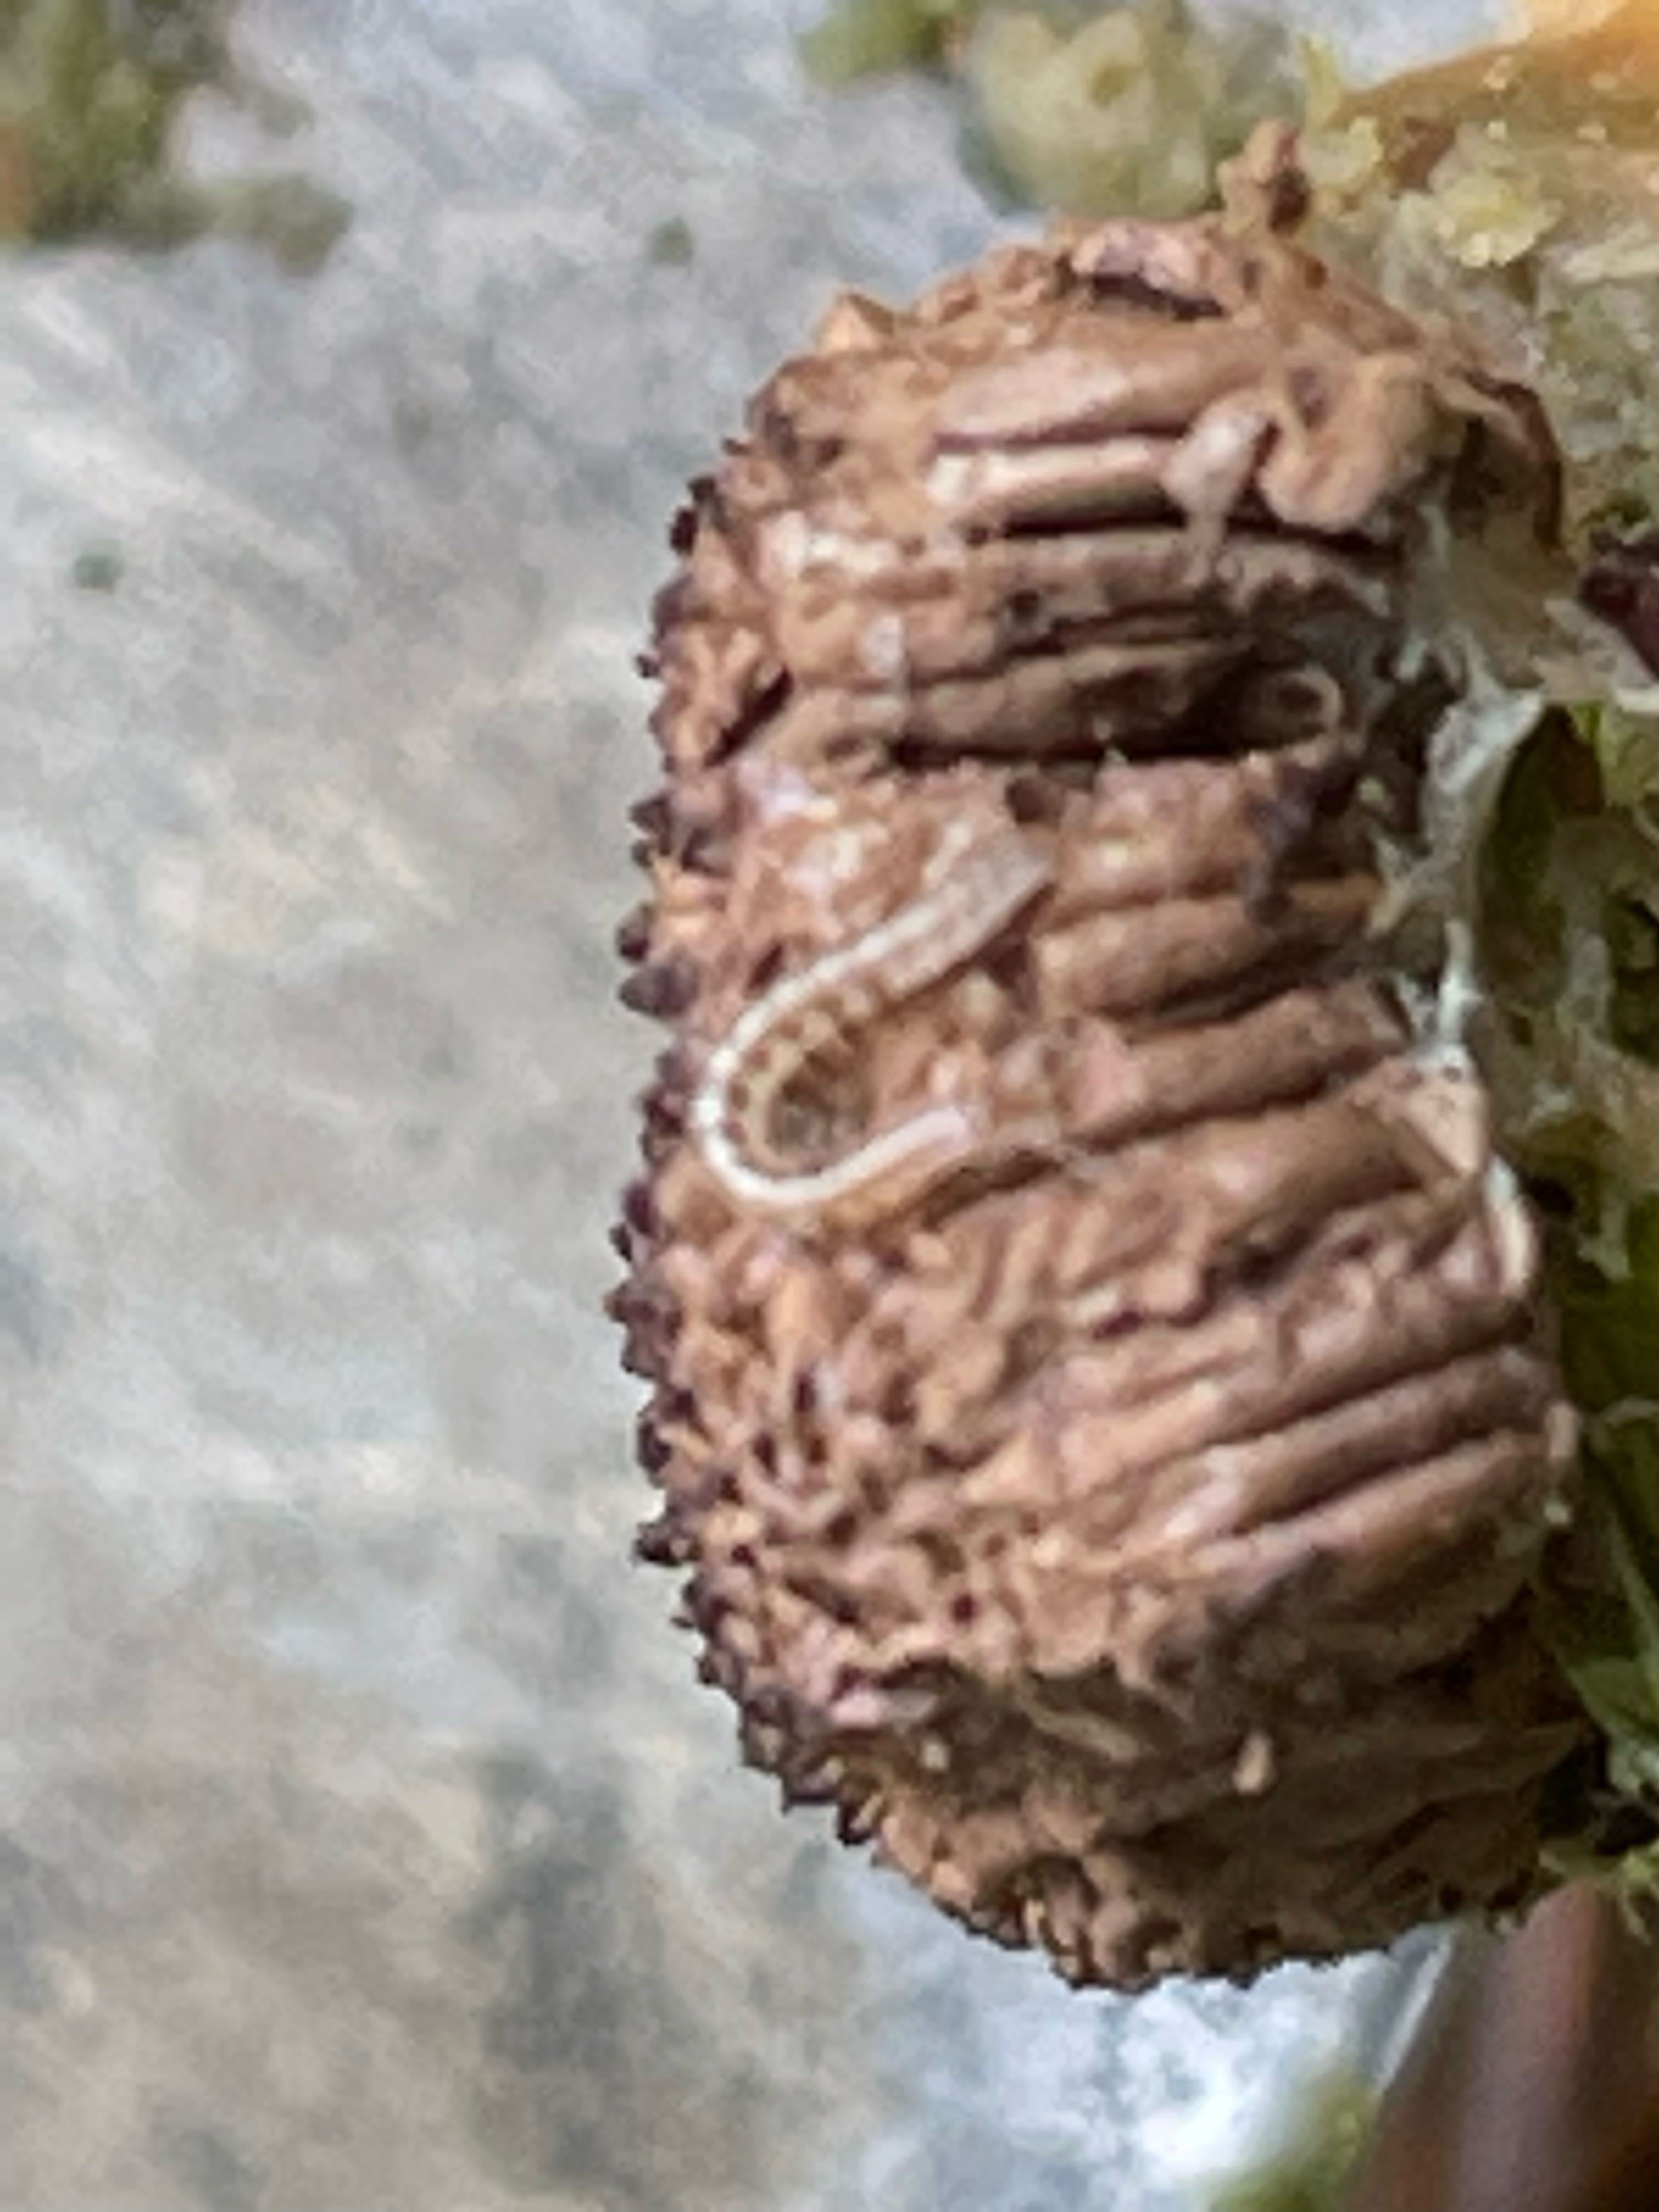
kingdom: Protozoa
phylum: Mycetozoa
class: Myxomycetes
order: Cribrariales
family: Tubiferaceae
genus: Tubifera
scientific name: Tubifera ferruginosa
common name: kanel-støvrør
